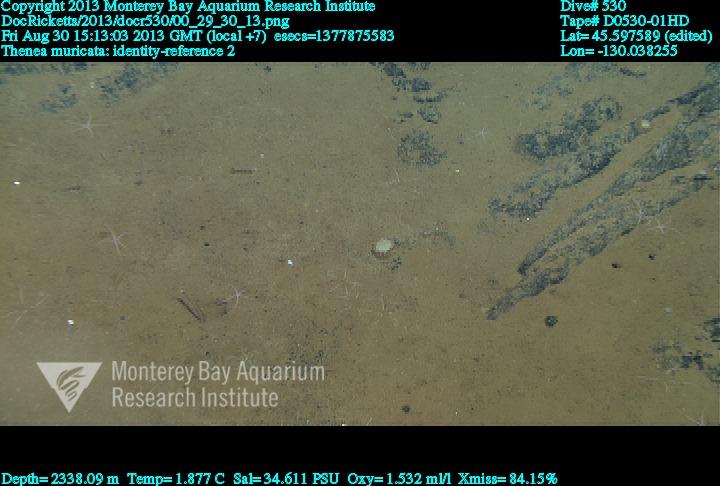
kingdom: Animalia
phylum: Porifera
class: Demospongiae
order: Tetractinellida
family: Theneidae
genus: Thenea
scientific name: Thenea muricata
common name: Mulberry horny sponge
